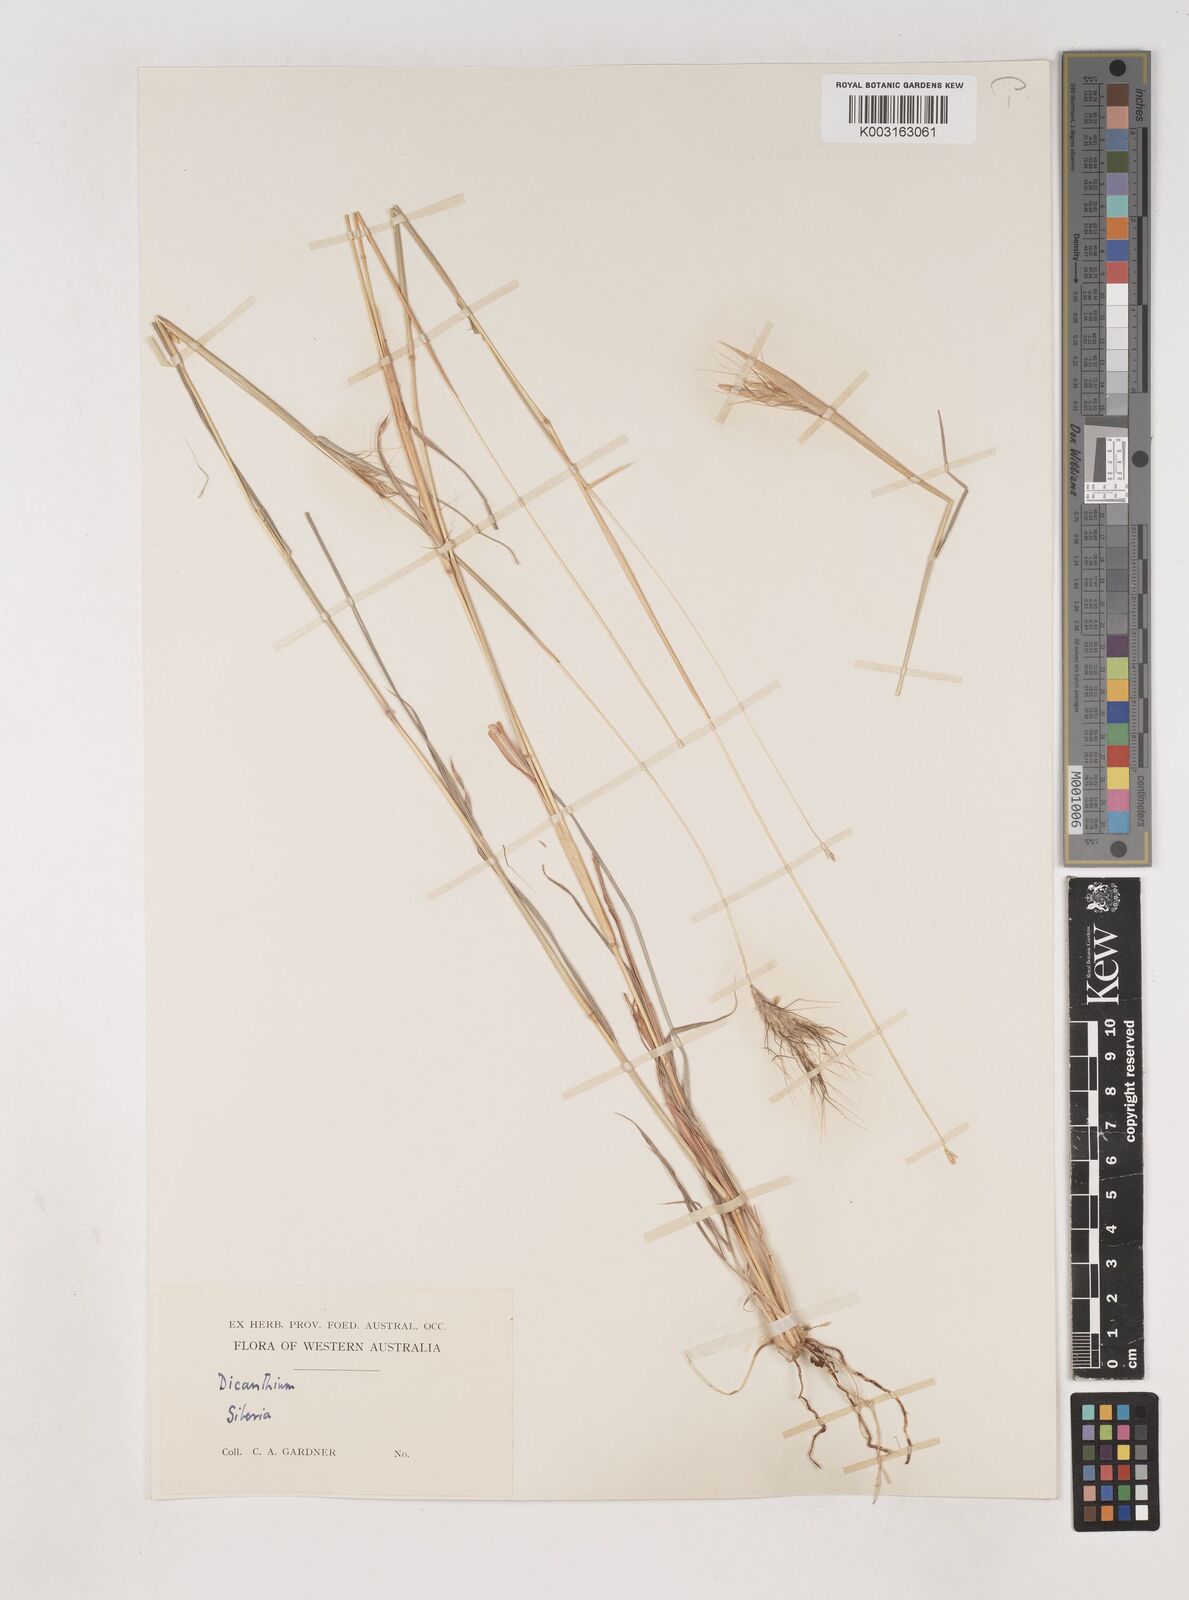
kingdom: Plantae
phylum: Tracheophyta
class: Liliopsida
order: Poales
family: Poaceae
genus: Dichanthium
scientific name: Dichanthium sericeum
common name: Silky bluestem
